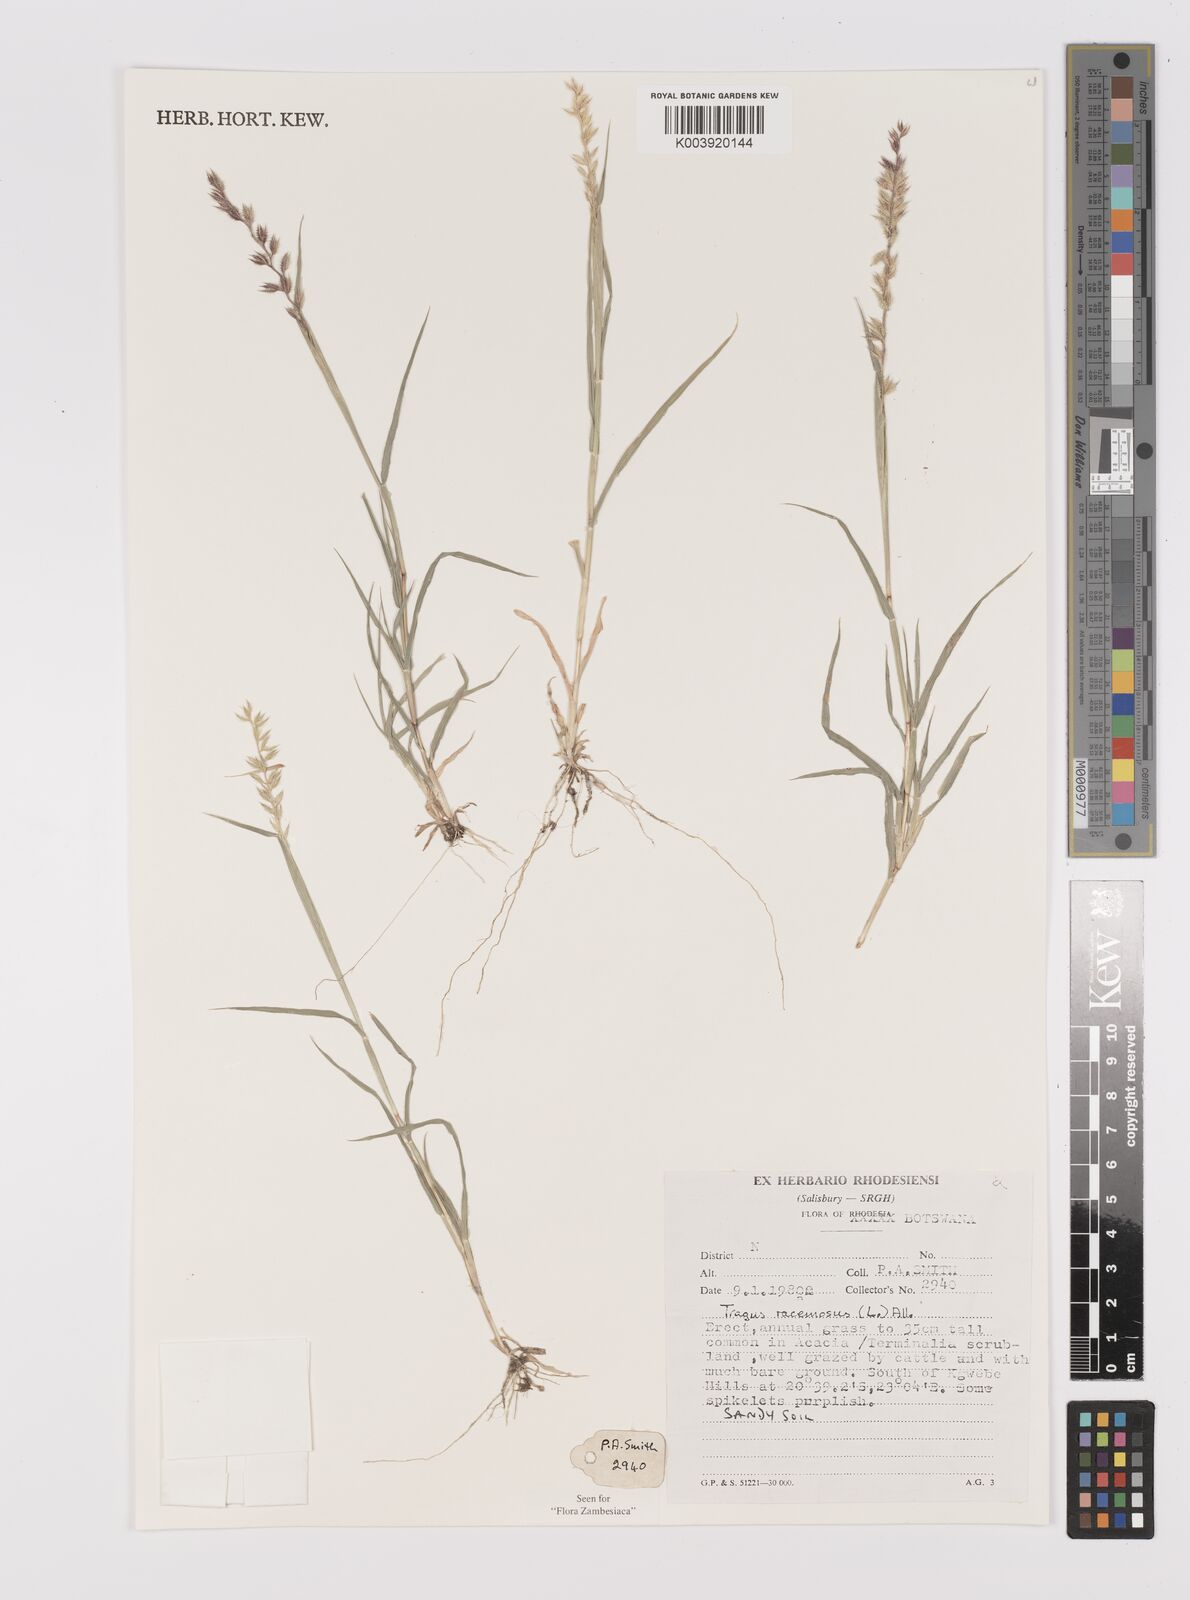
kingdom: Plantae
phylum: Tracheophyta
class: Liliopsida
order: Poales
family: Poaceae
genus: Tragus
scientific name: Tragus racemosus
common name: European bur-grass
